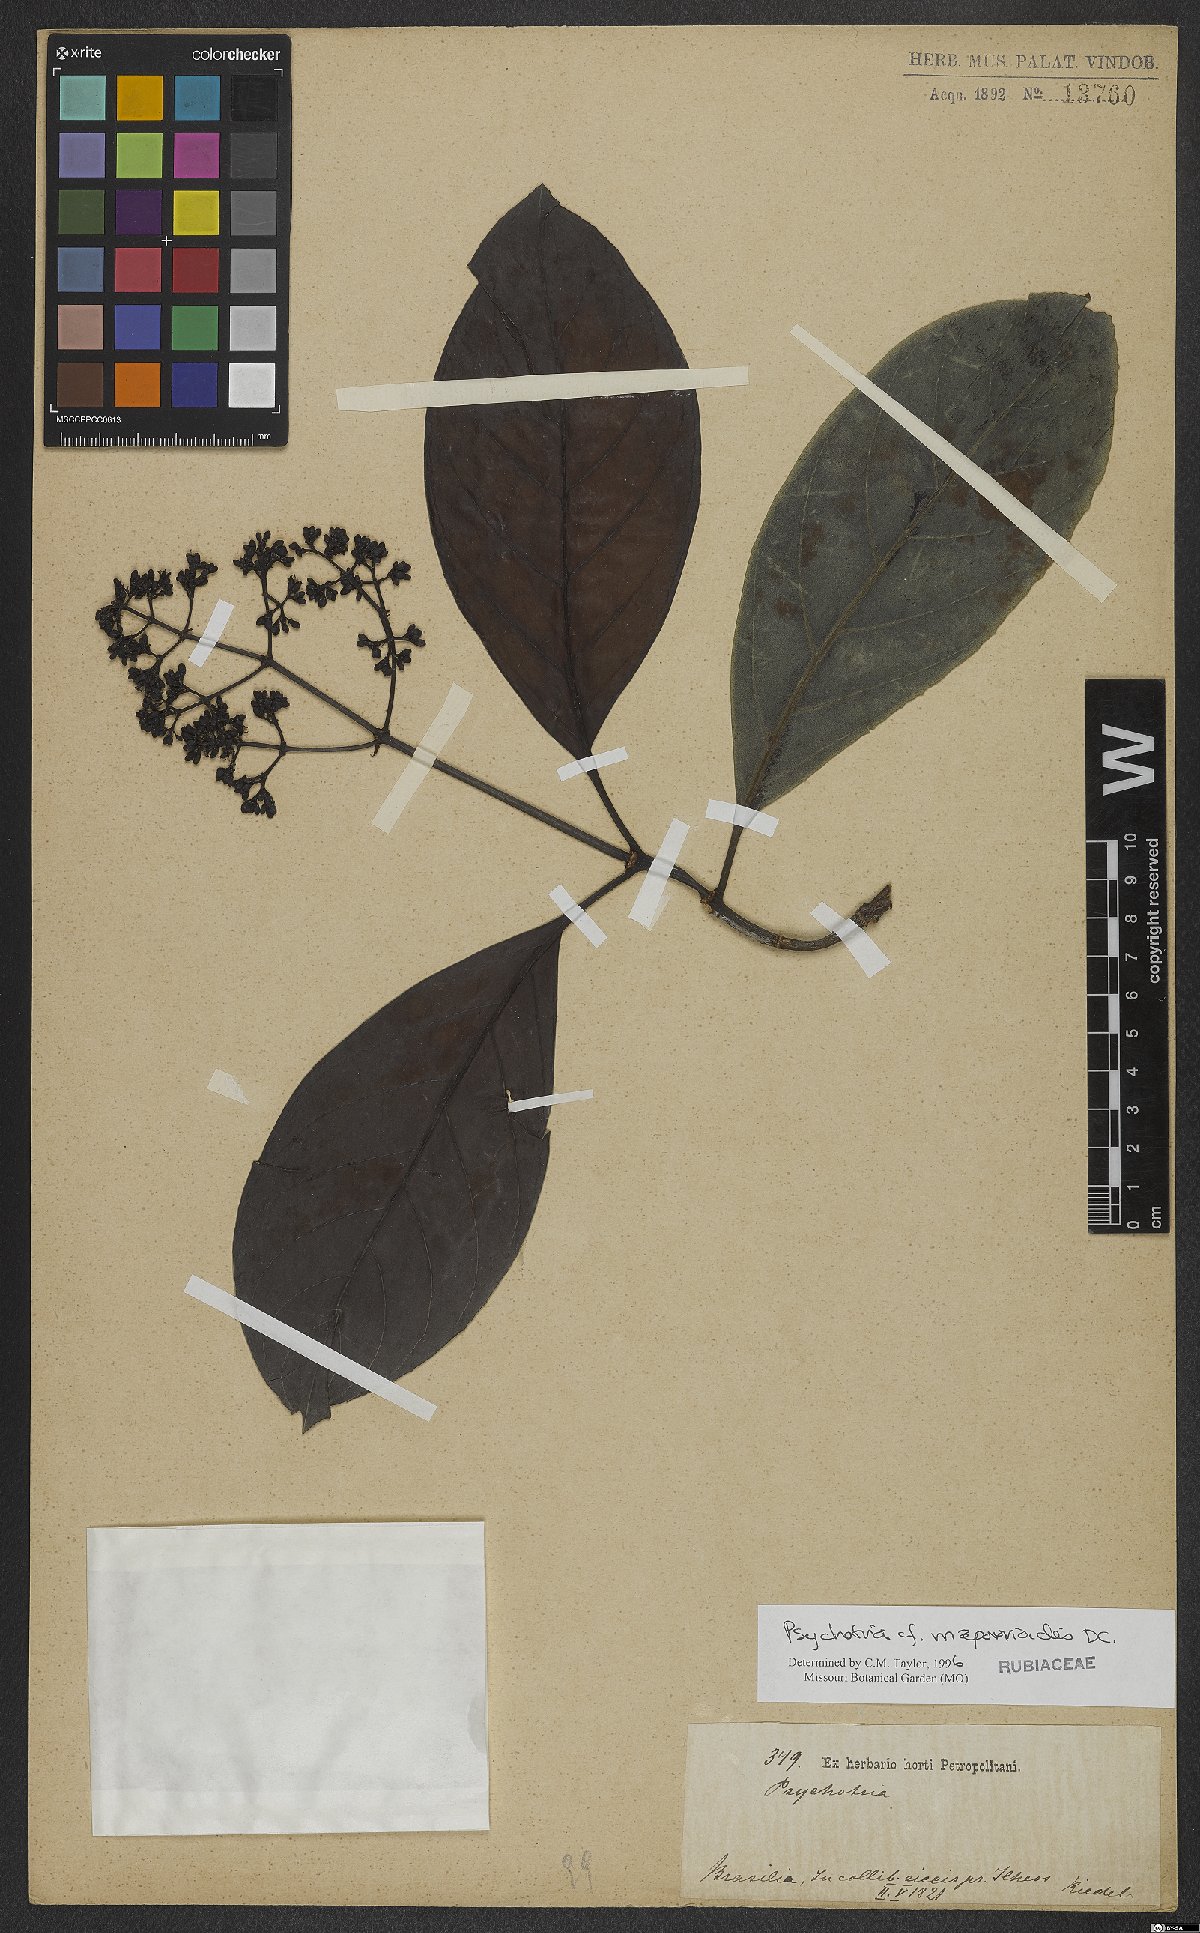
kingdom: Plantae
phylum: Tracheophyta
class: Magnoliopsida
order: Gentianales
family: Rubiaceae
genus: Psychotria
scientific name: Psychotria pedunculosa
